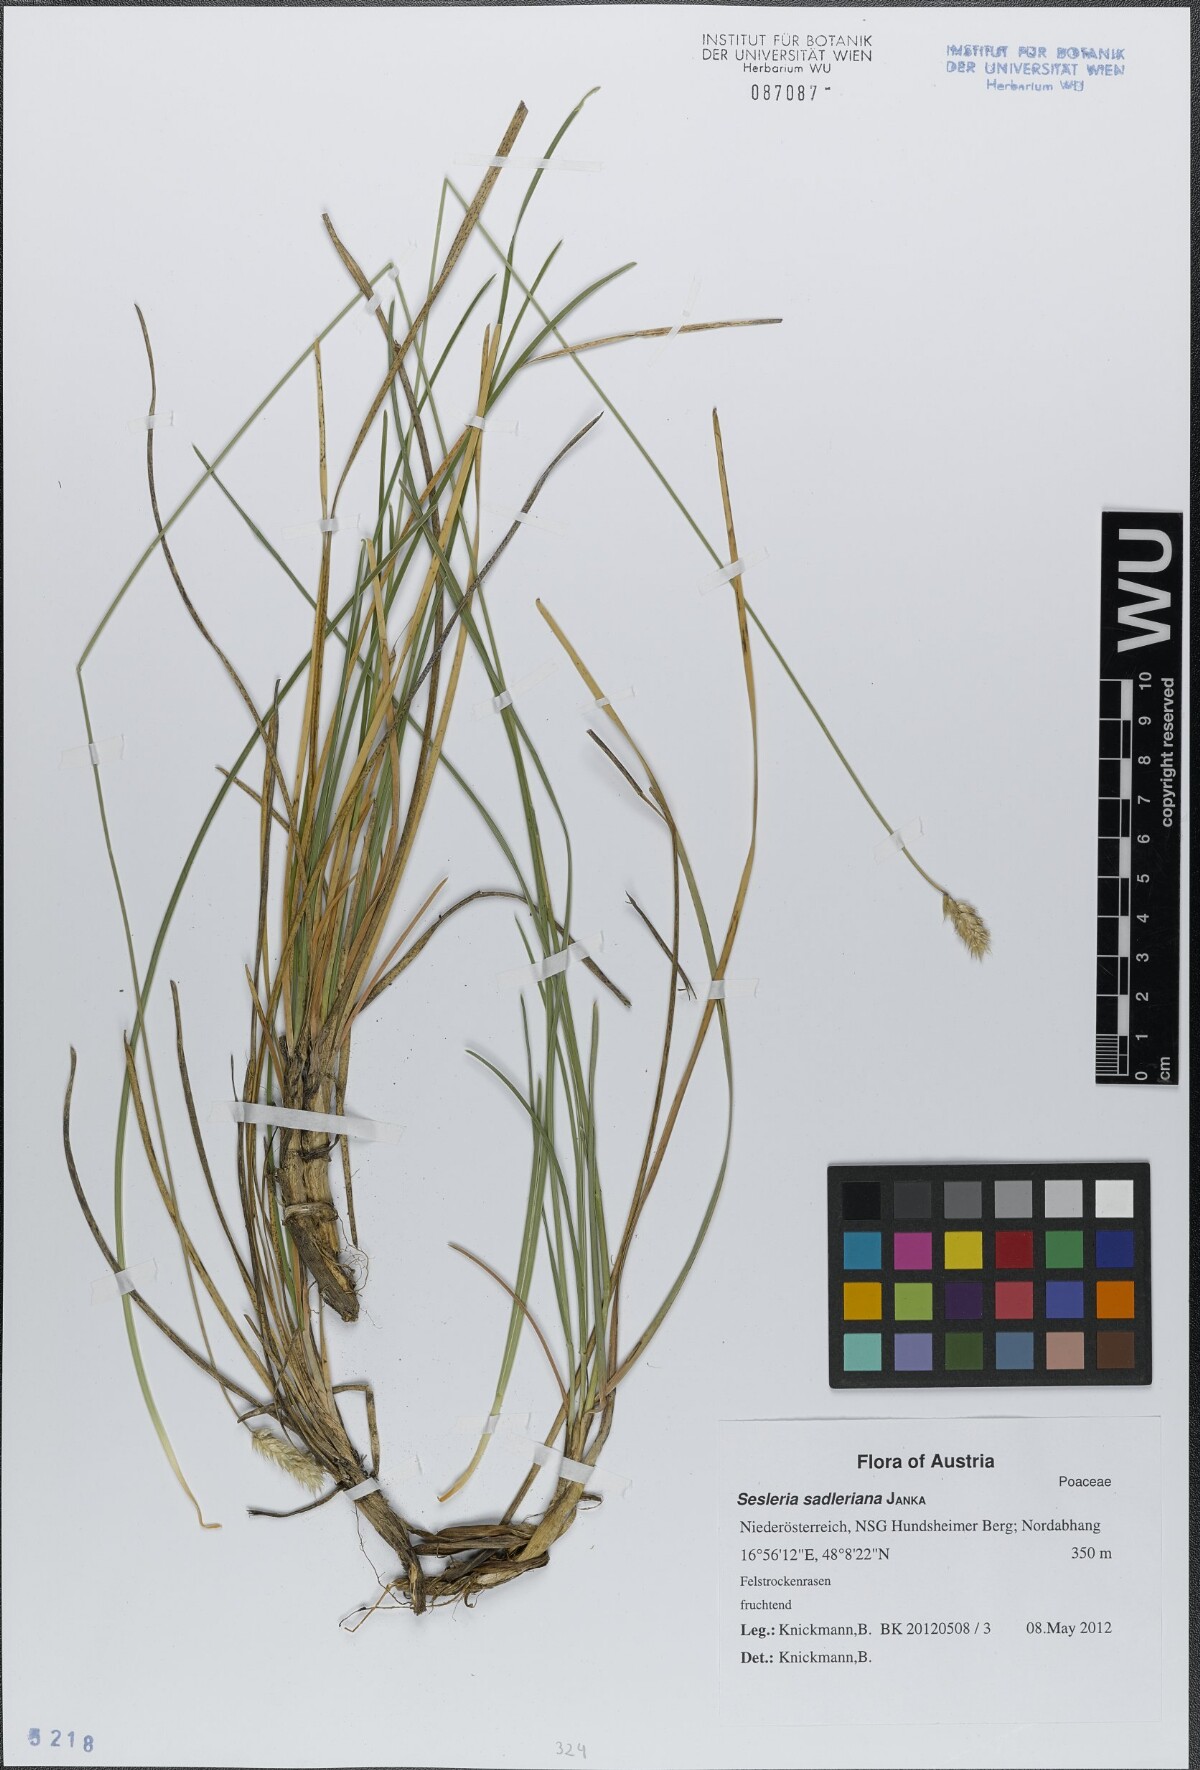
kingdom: Plantae
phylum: Tracheophyta
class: Liliopsida
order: Poales
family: Poaceae
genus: Sesleria
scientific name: Sesleria sadleriana
